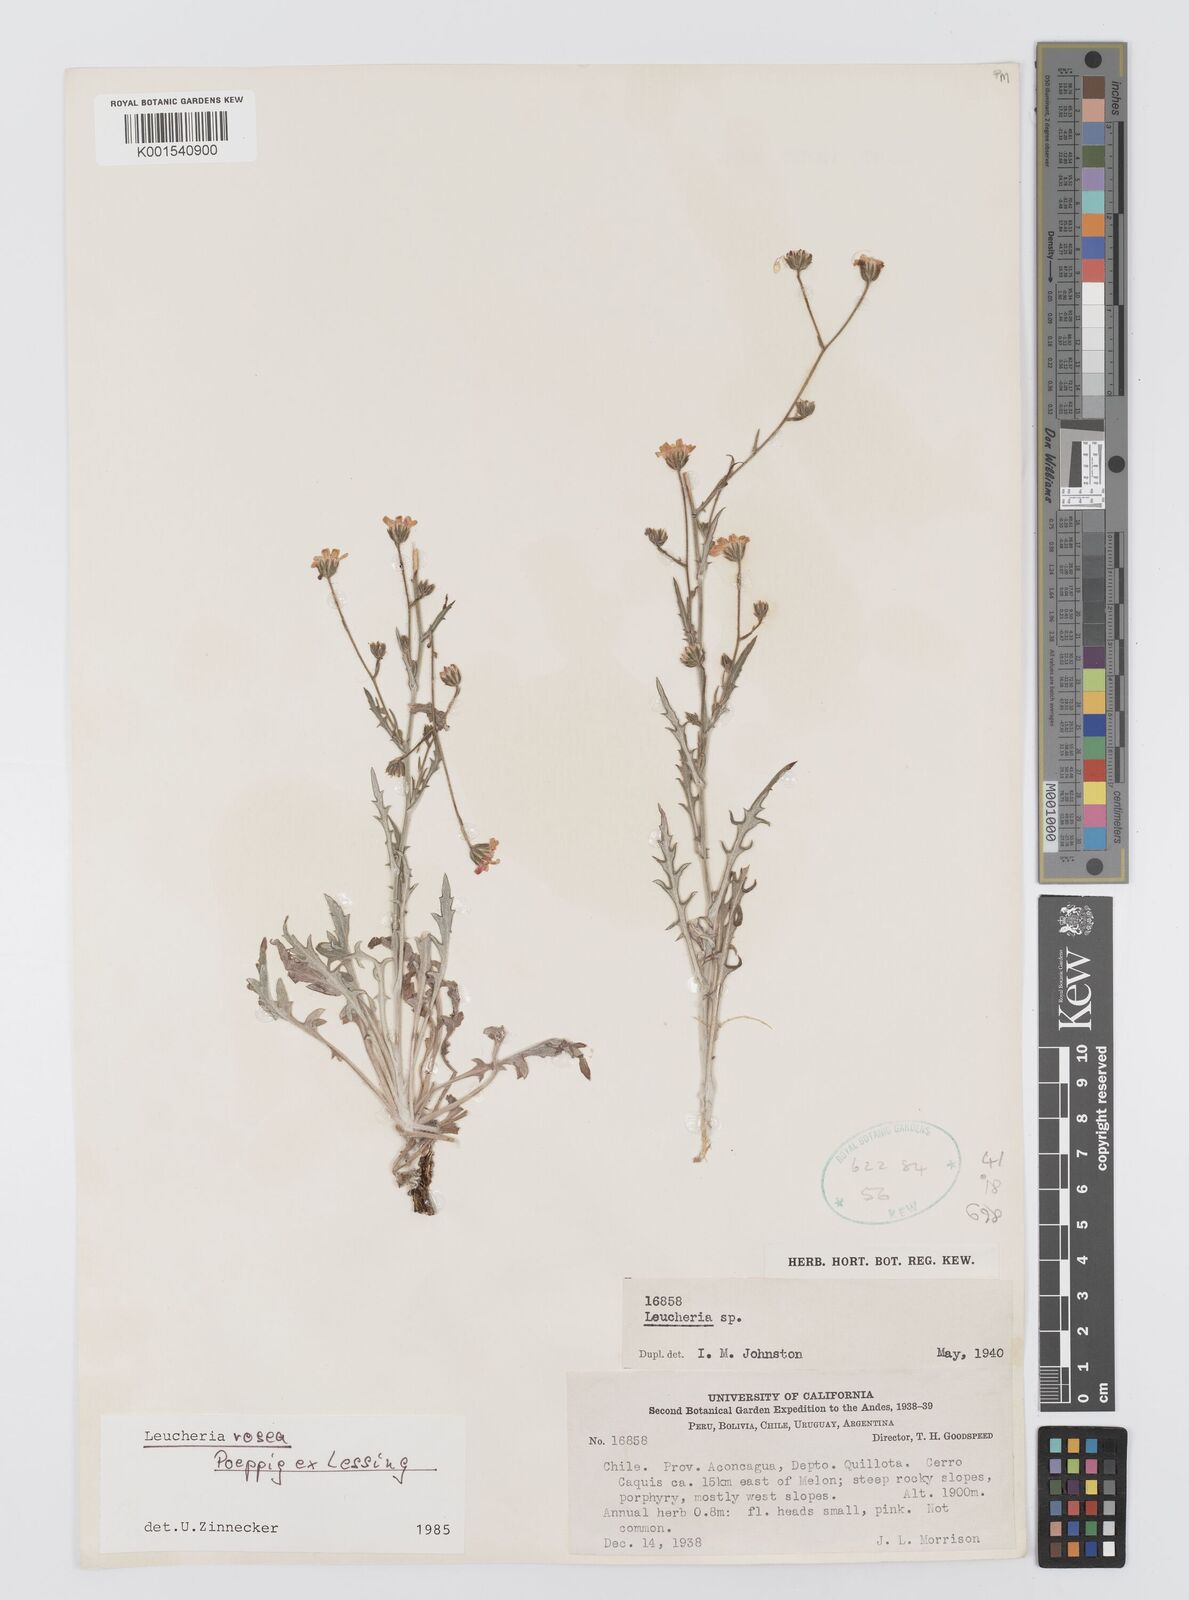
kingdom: Plantae
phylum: Tracheophyta
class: Magnoliopsida
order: Asterales
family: Asteraceae
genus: Leucheria
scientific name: Leucheria rosea
